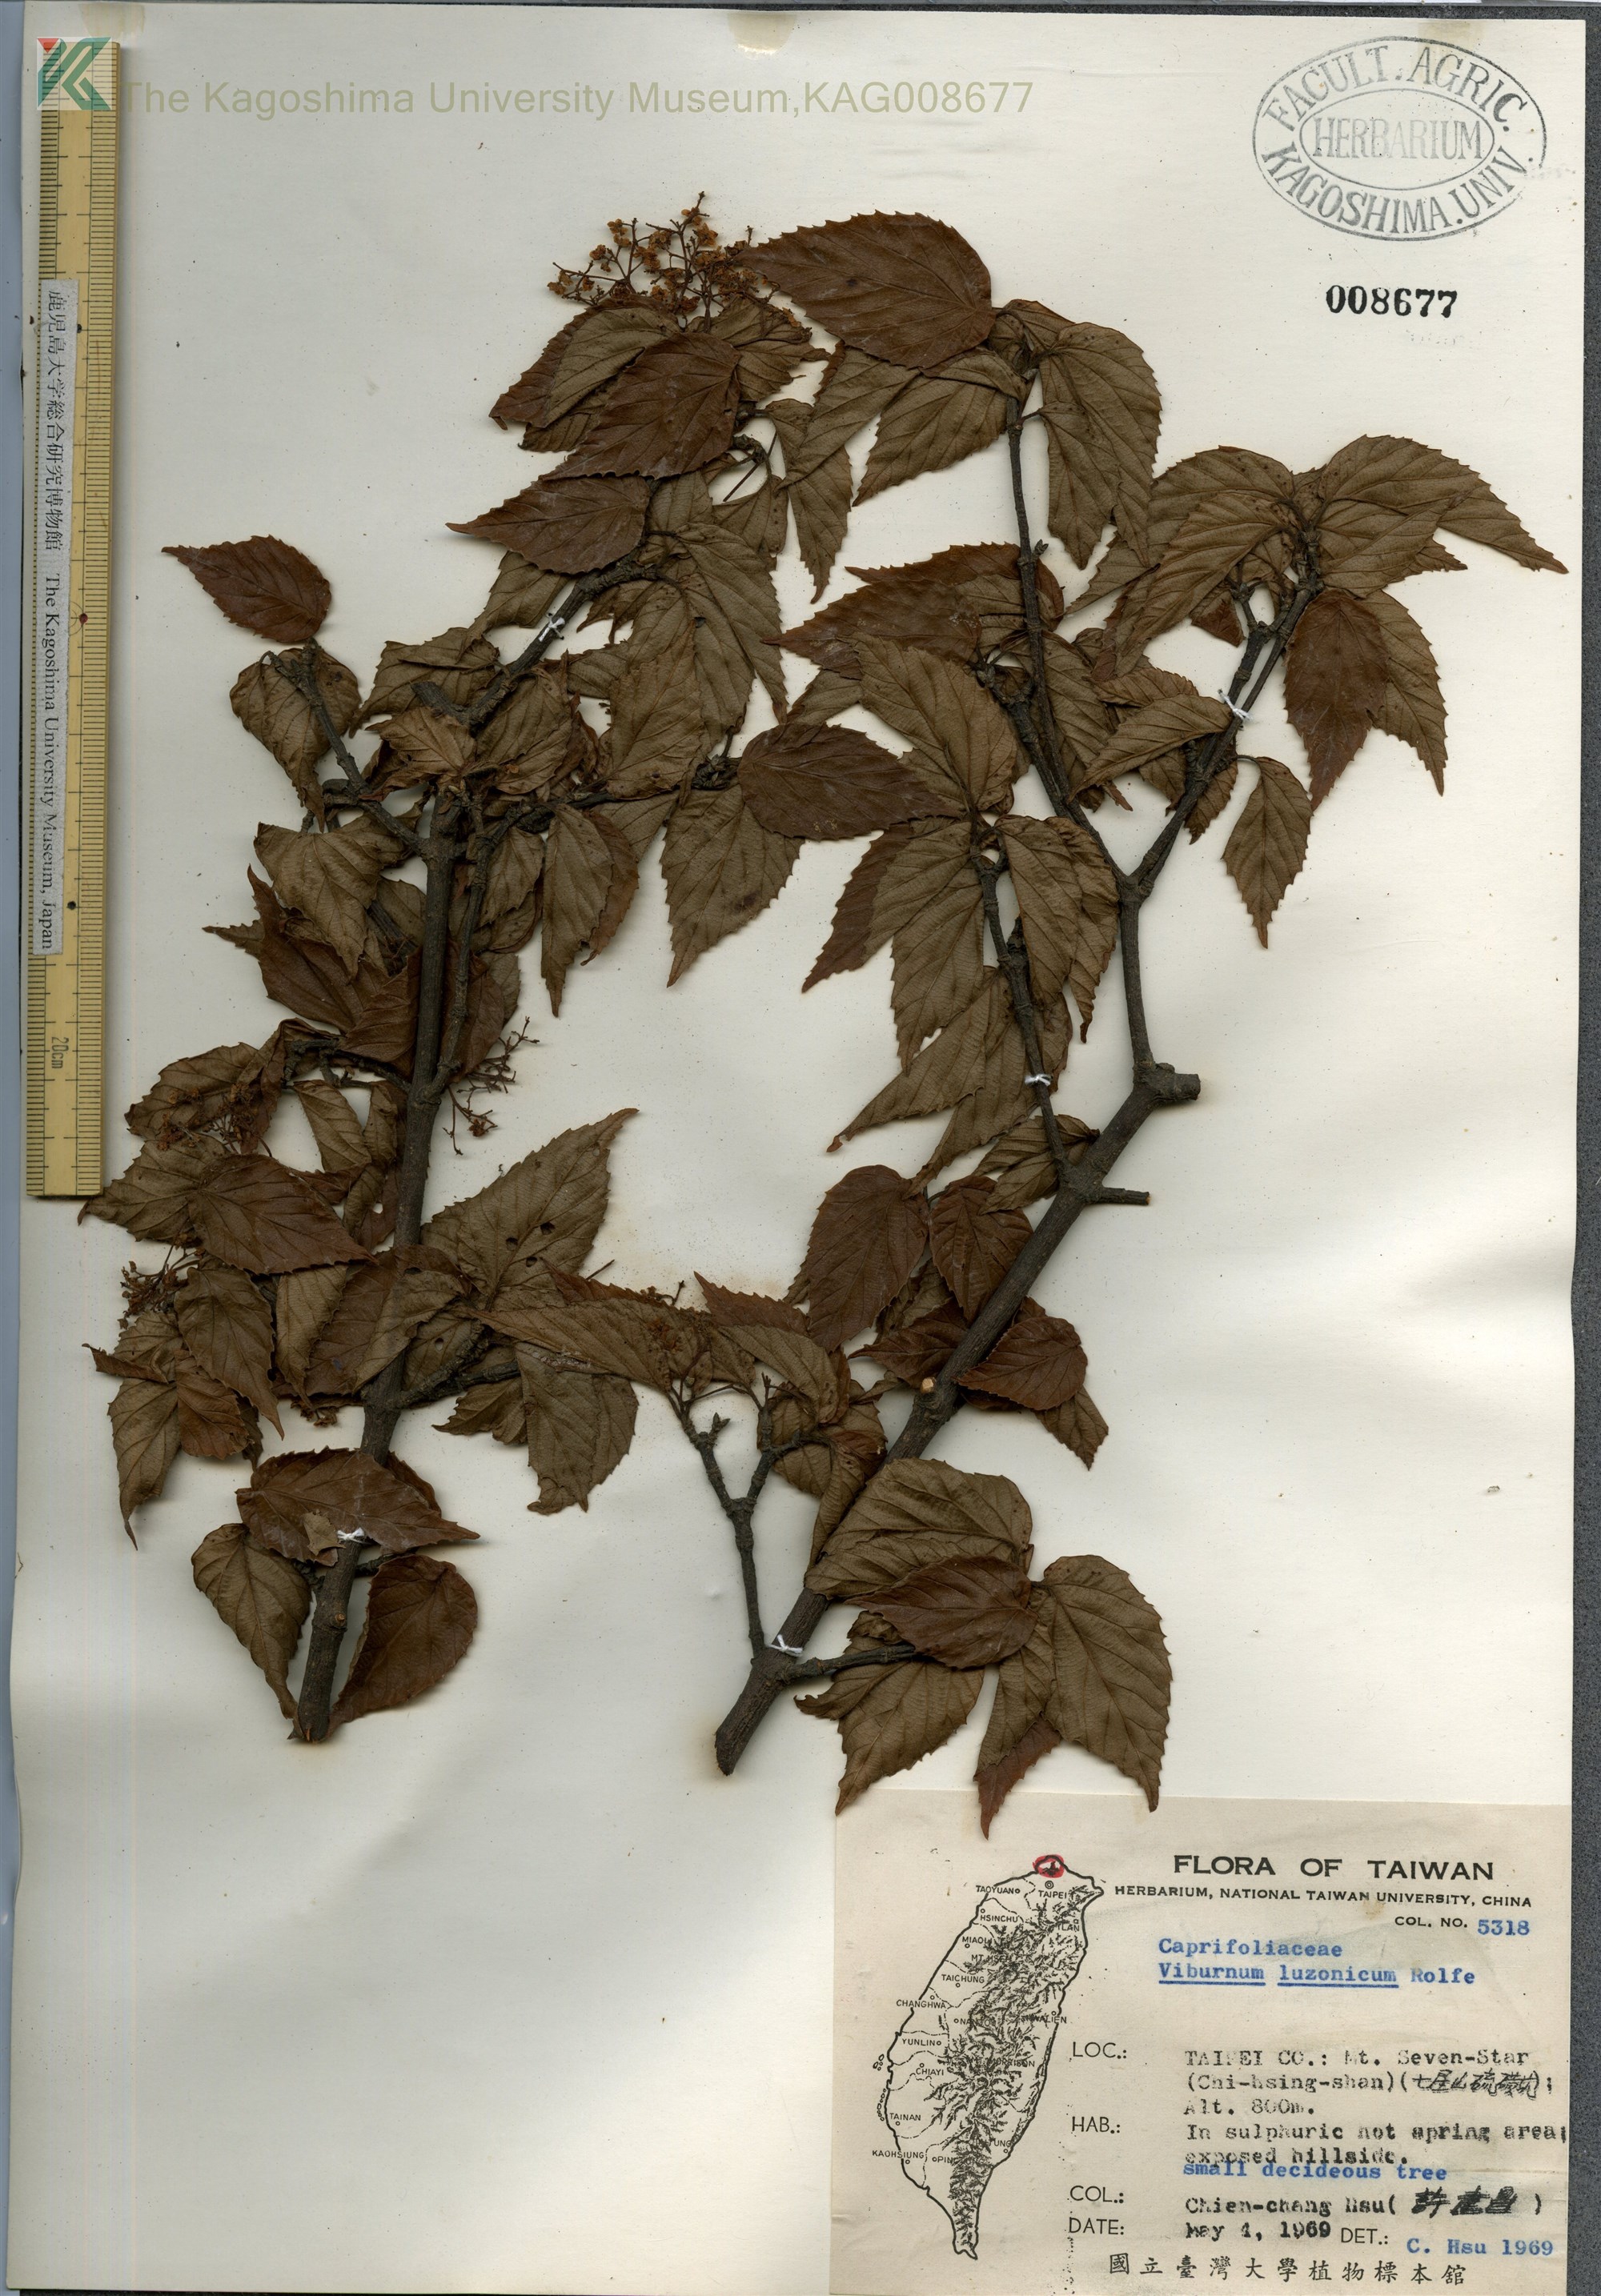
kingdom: Plantae
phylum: Tracheophyta
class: Magnoliopsida
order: Dipsacales
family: Viburnaceae
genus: Viburnum
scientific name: Viburnum mullaha
